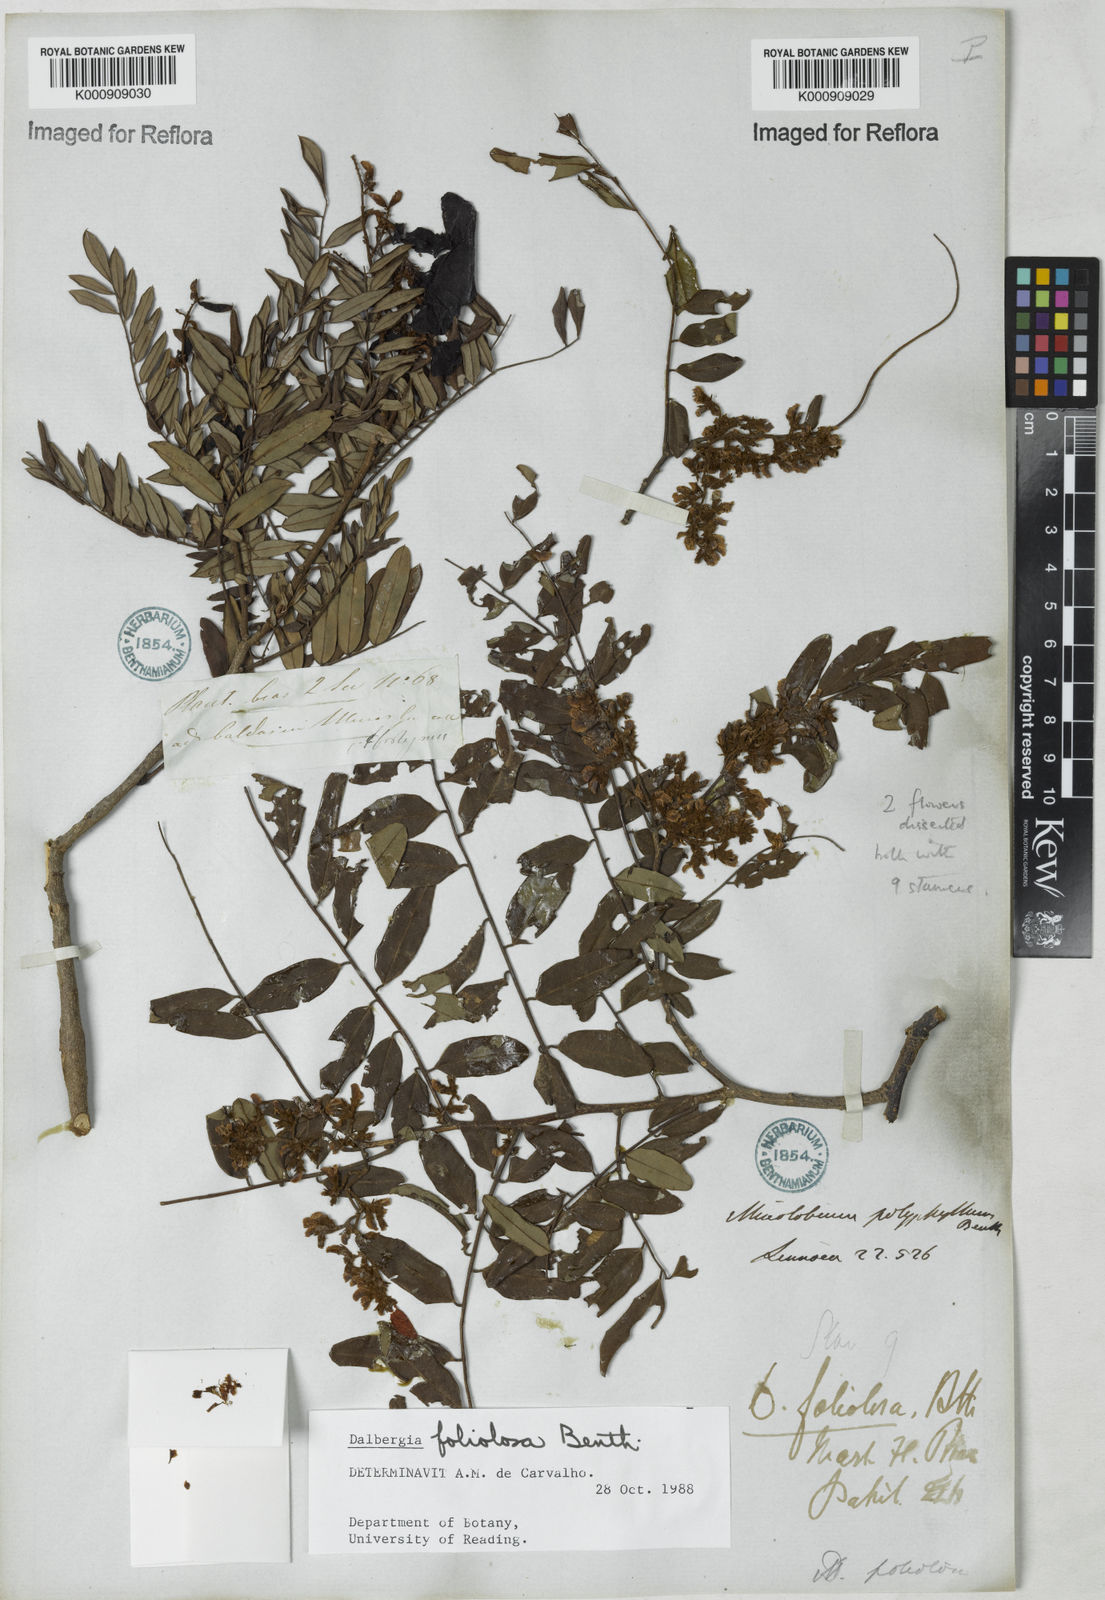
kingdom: Plantae
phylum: Tracheophyta
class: Magnoliopsida
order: Fabales
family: Fabaceae
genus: Dalbergia
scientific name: Dalbergia foliolosa
